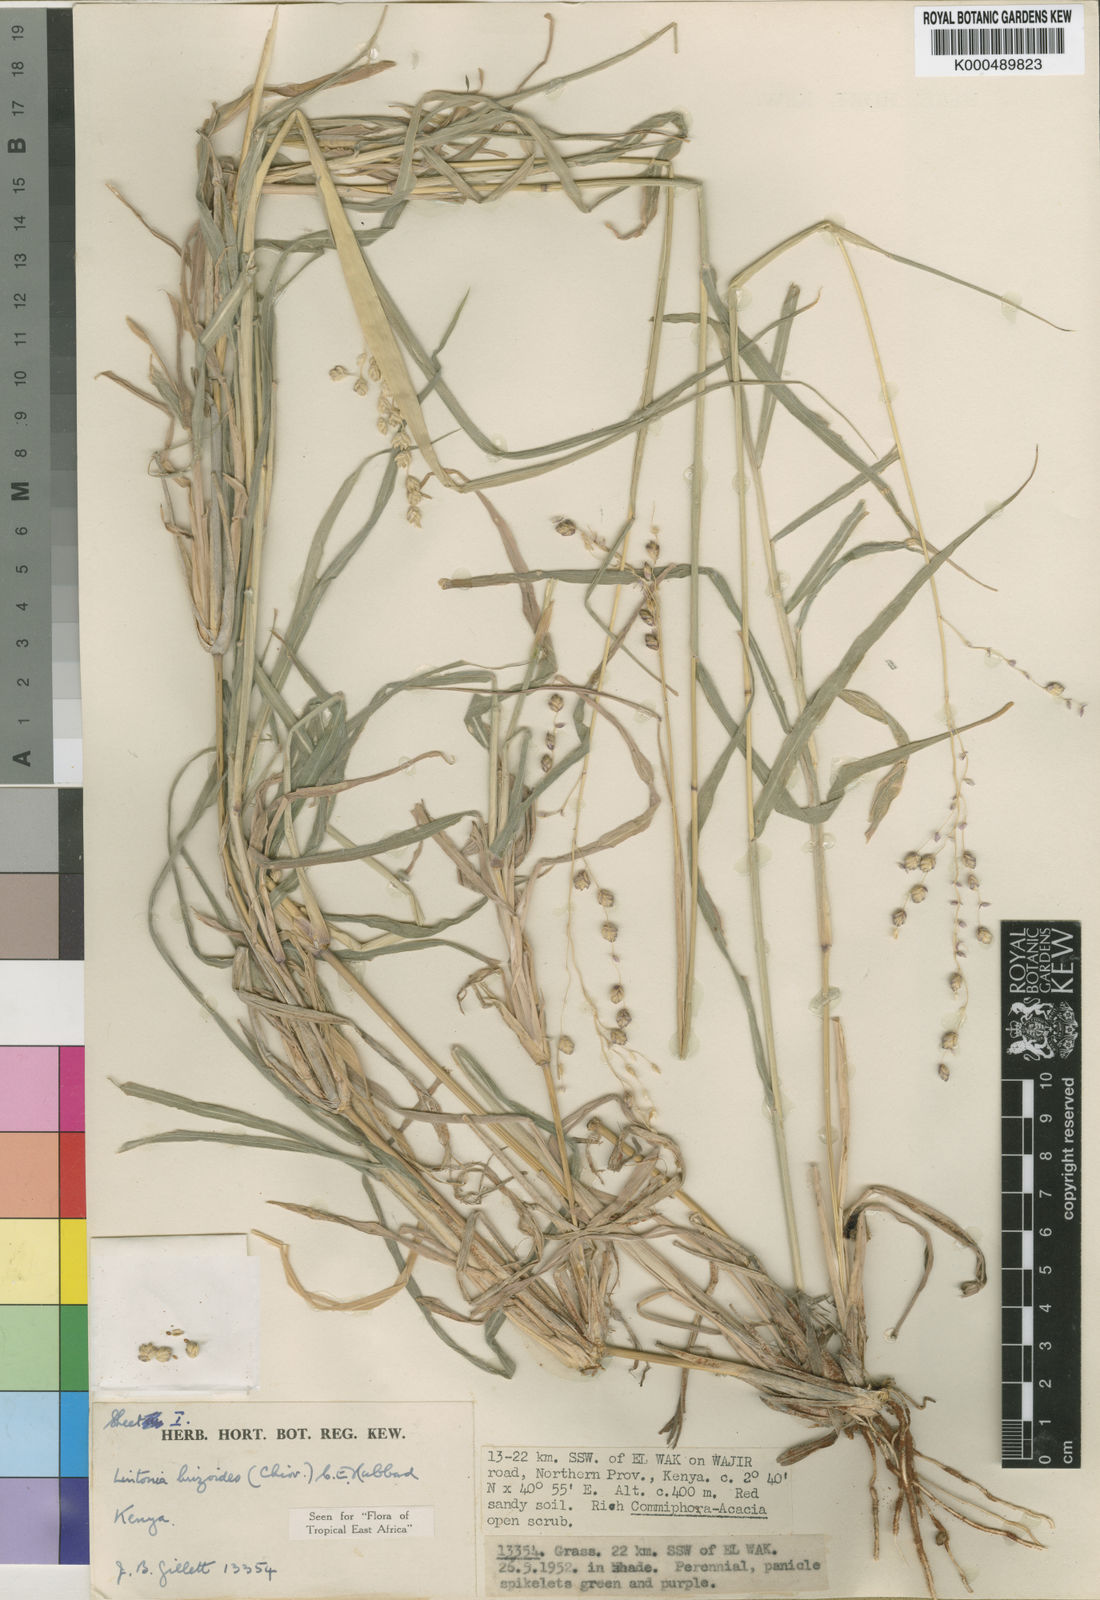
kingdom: Plantae
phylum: Tracheophyta
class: Liliopsida
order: Poales
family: Poaceae
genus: Chloris
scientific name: Chloris Lintonia brizoides
